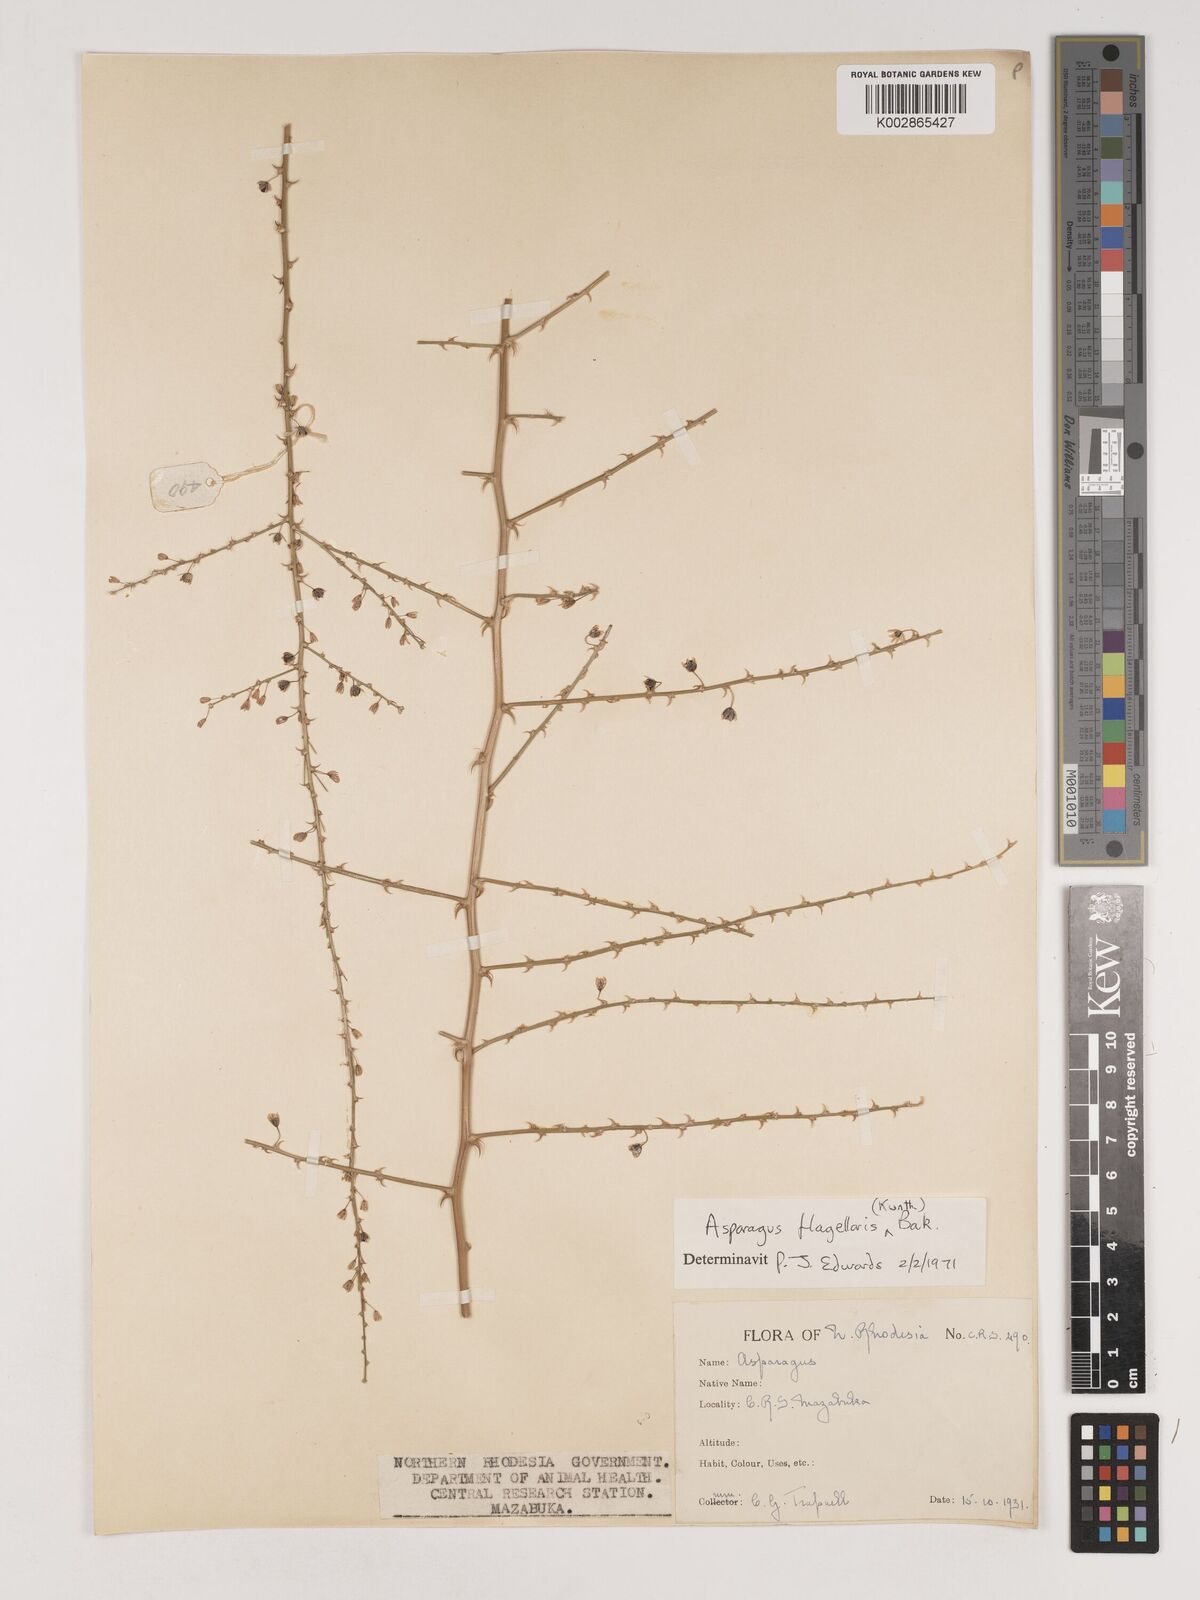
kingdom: Plantae
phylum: Tracheophyta
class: Liliopsida
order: Asparagales
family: Asparagaceae
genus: Asparagus
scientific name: Asparagus flagellaris
